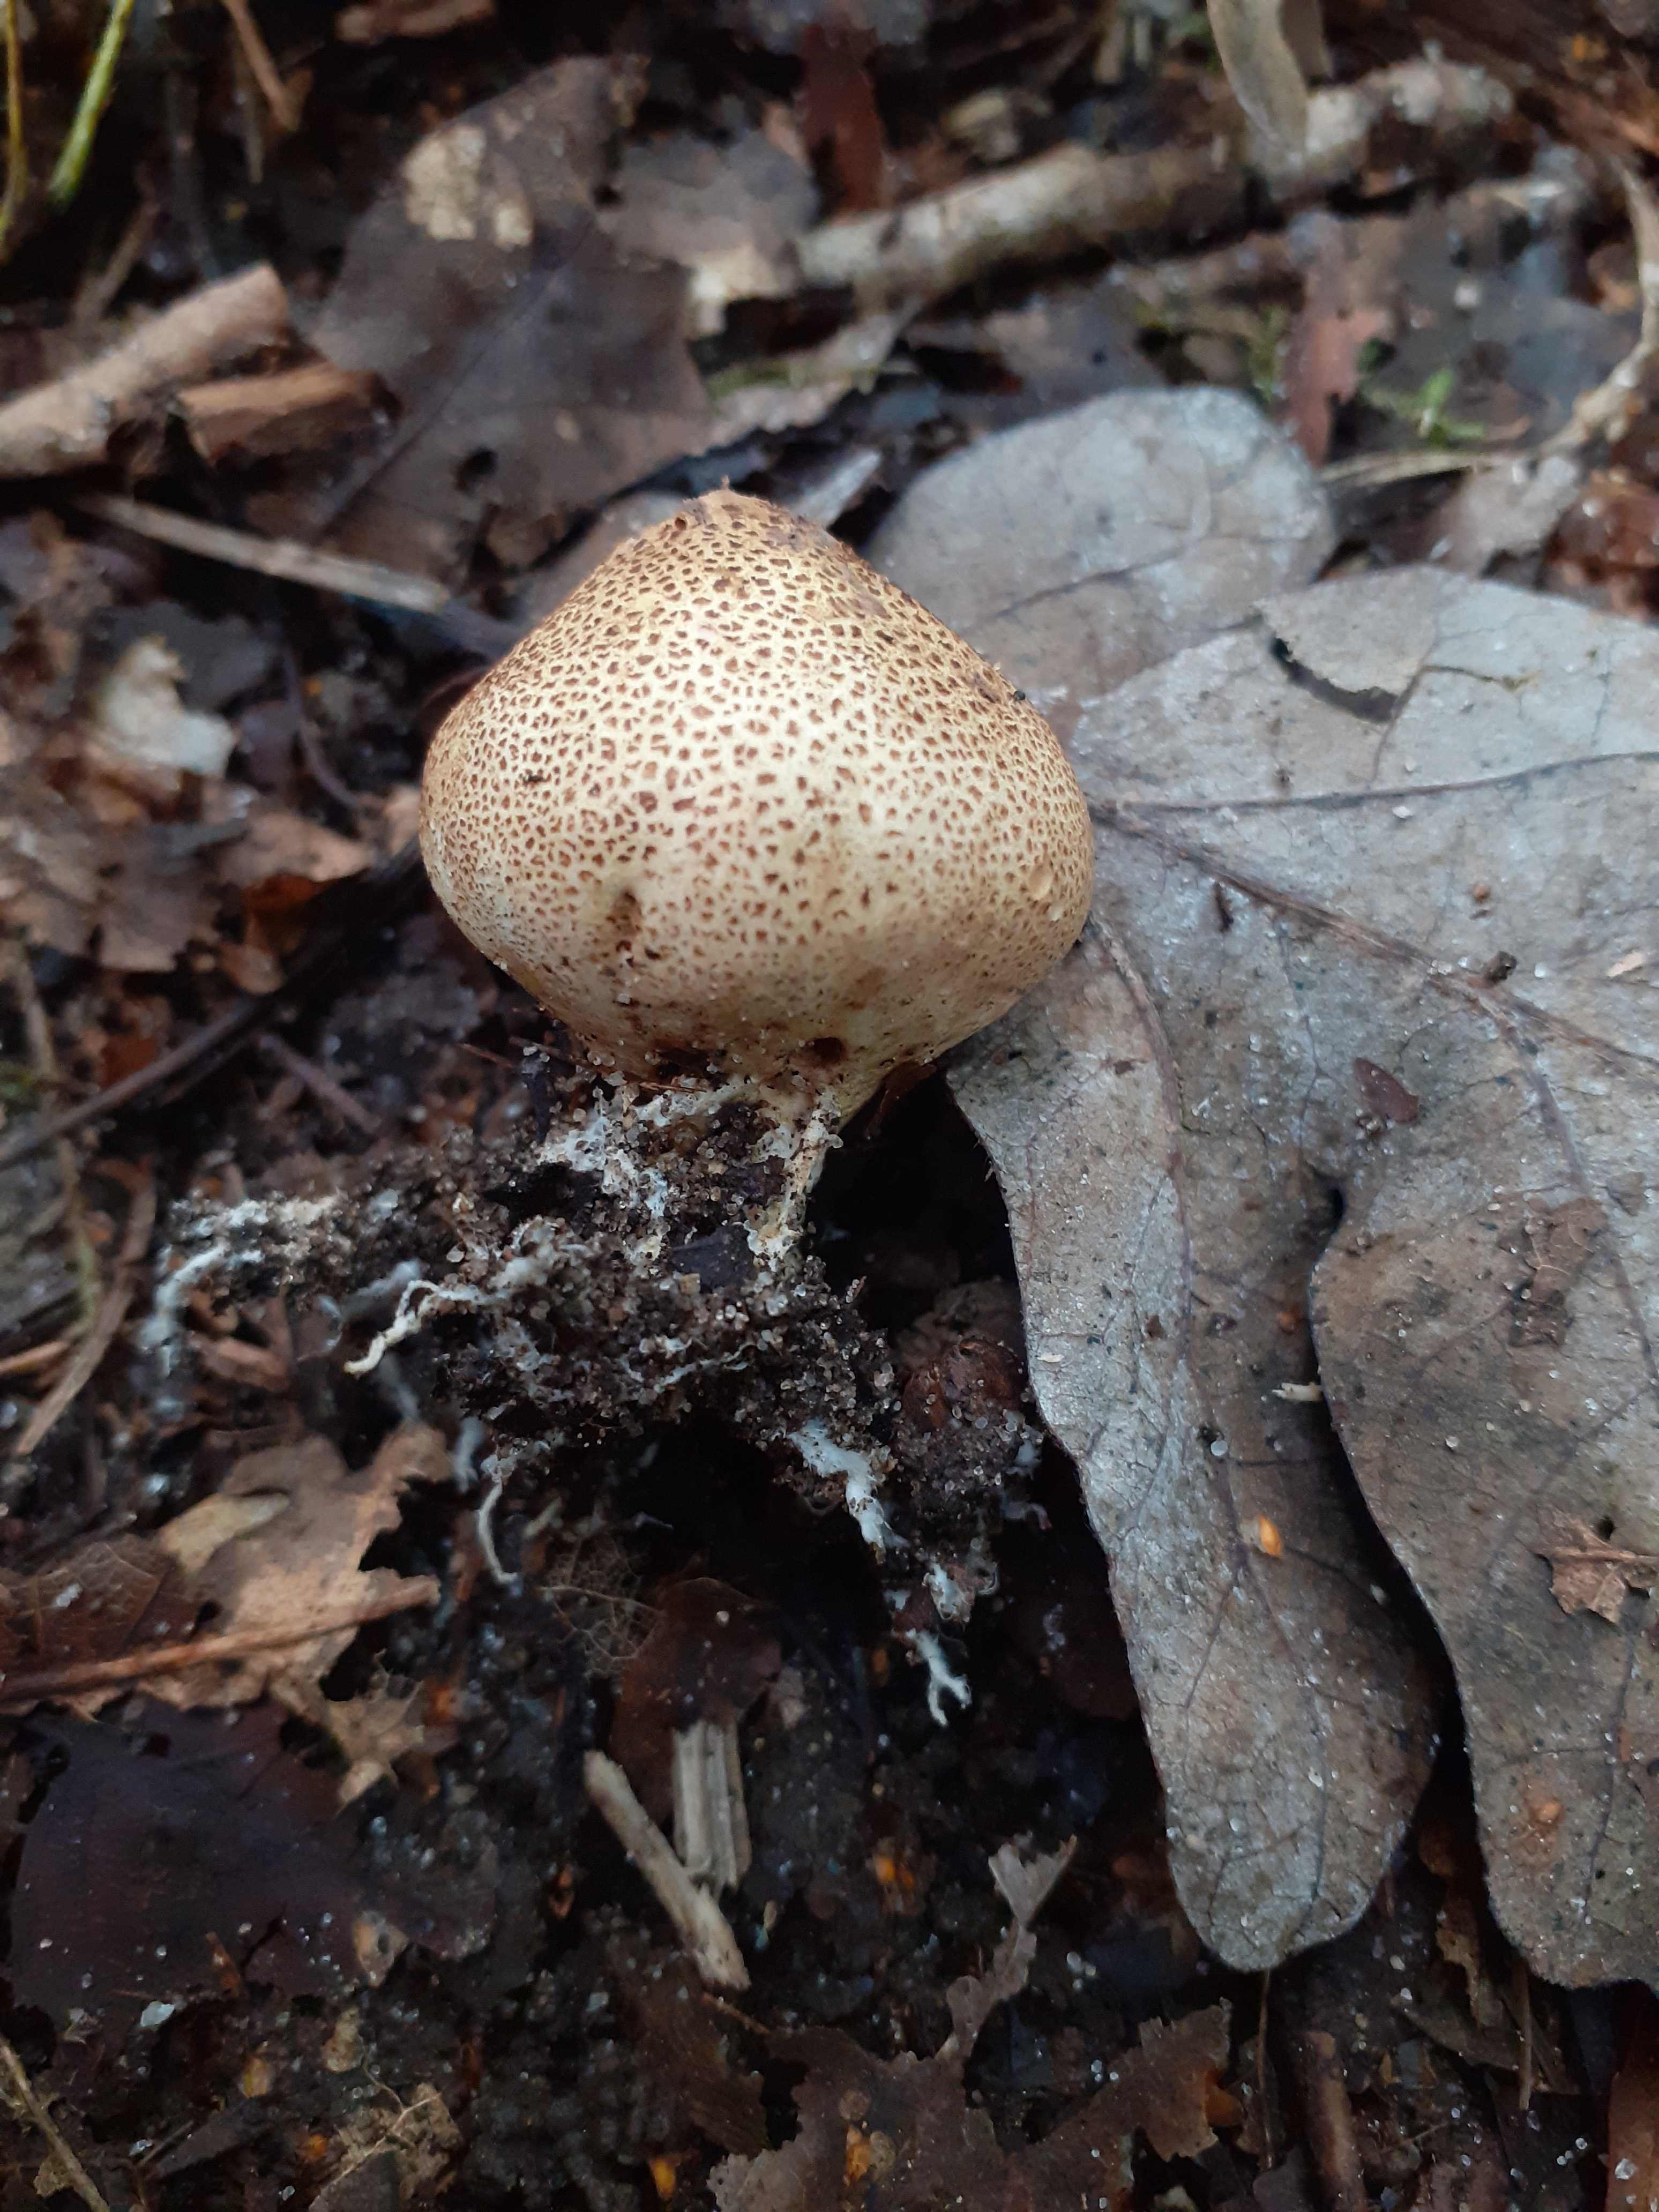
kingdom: Fungi
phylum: Basidiomycota
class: Agaricomycetes
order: Boletales
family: Sclerodermataceae
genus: Scleroderma
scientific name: Scleroderma areolatum
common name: plettet bruskbold
